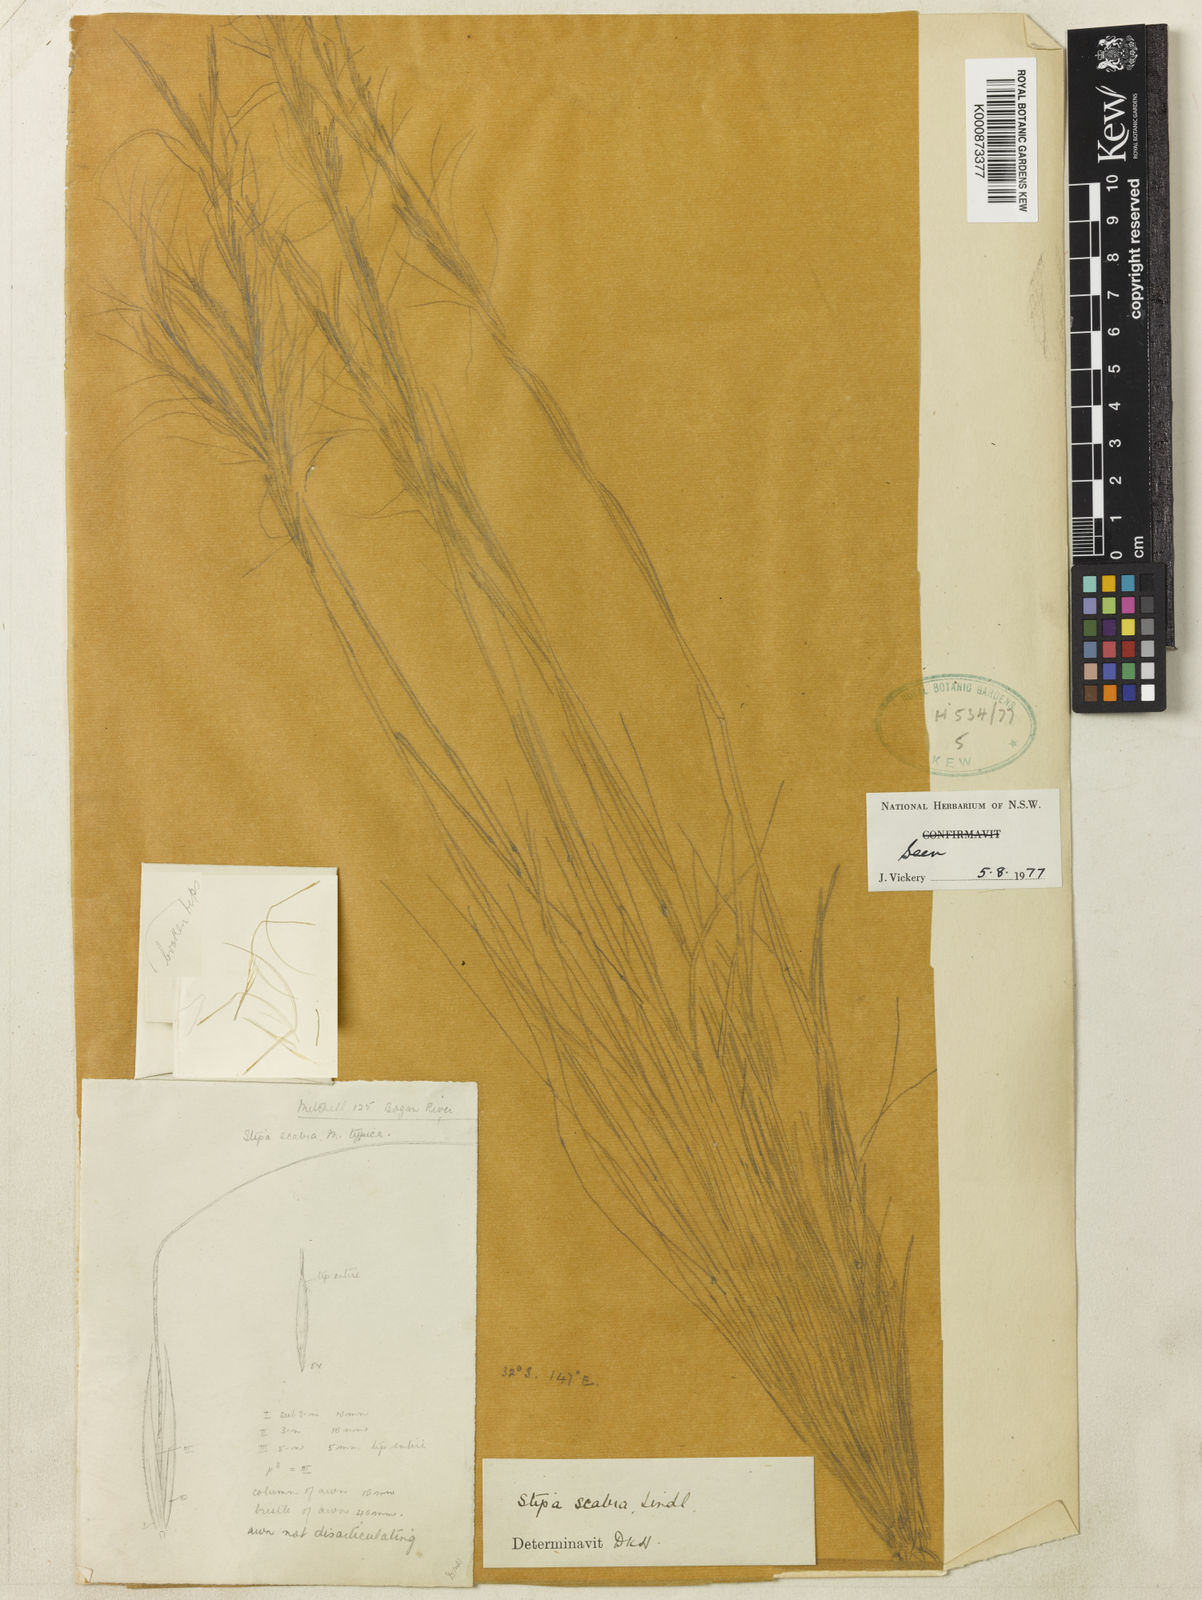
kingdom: Plantae
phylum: Tracheophyta
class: Liliopsida
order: Poales
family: Poaceae
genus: Austrostipa
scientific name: Austrostipa scabra
